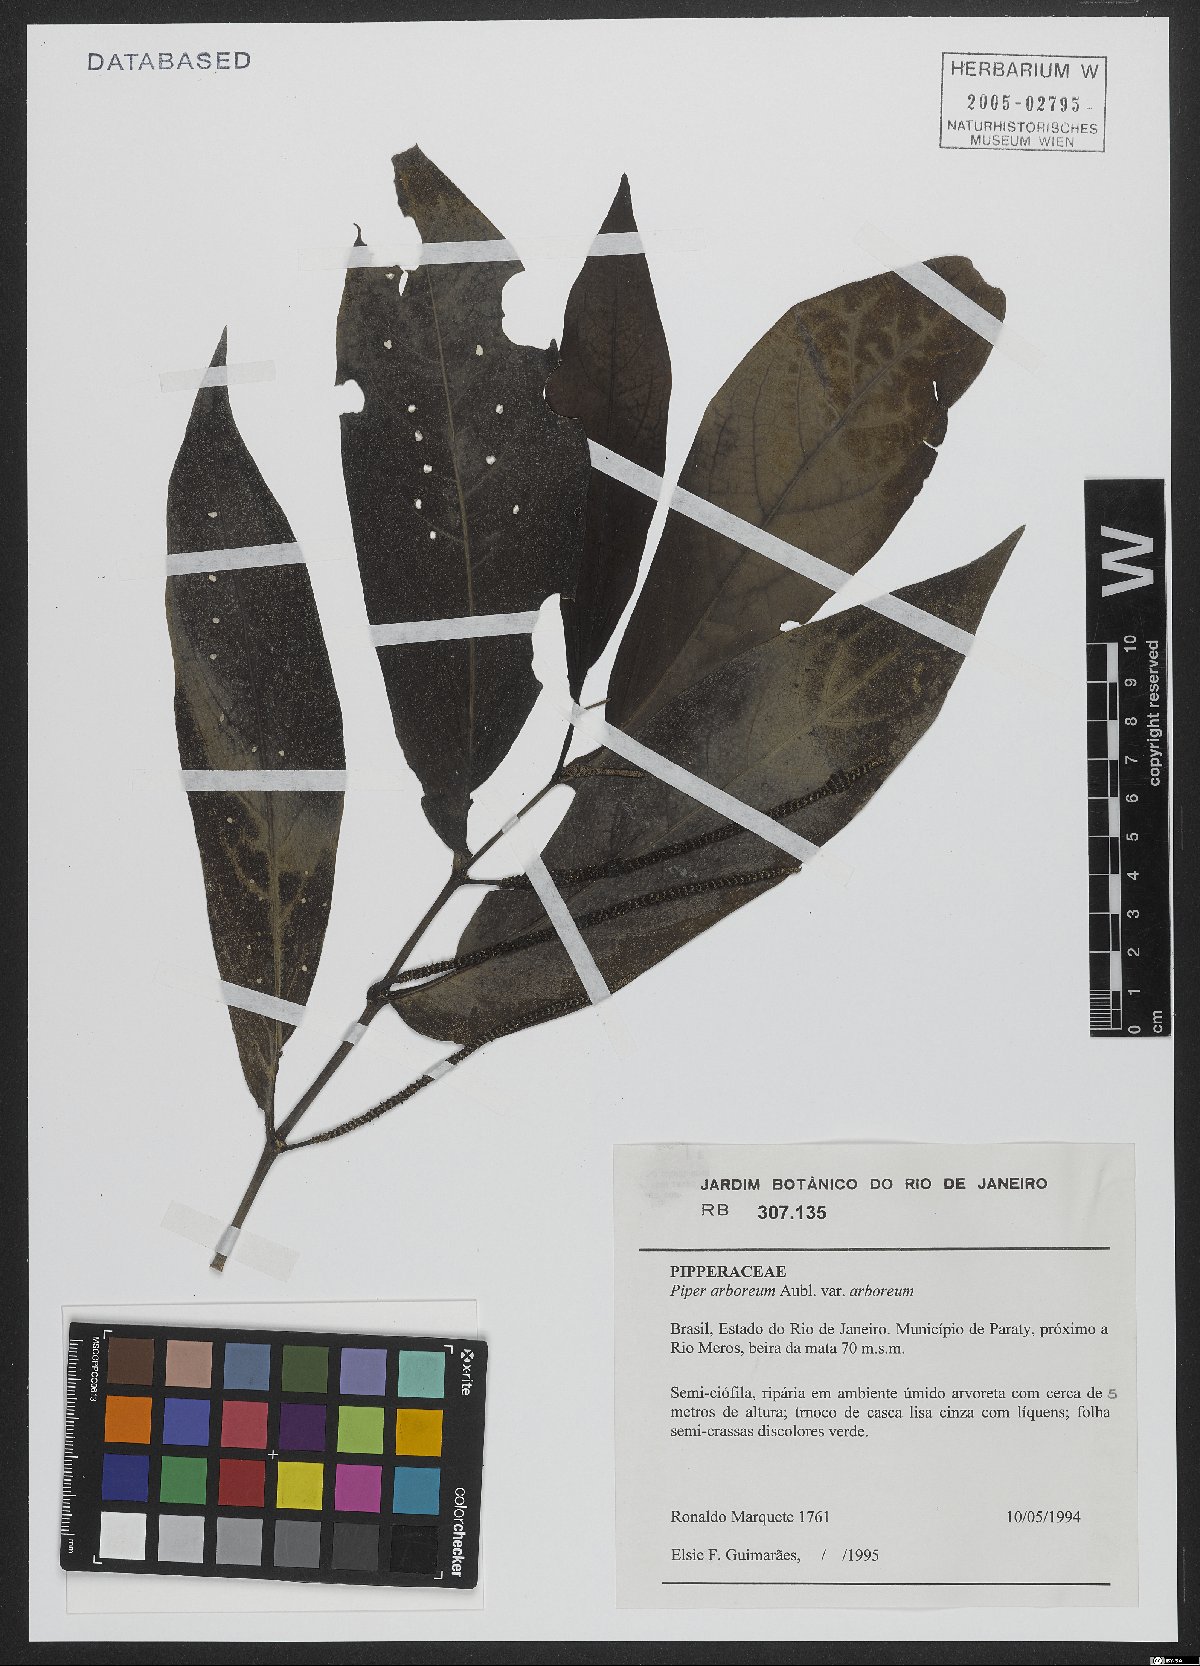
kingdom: Plantae
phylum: Tracheophyta
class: Magnoliopsida
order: Piperales
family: Piperaceae
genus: Piper
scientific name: Piper arboreum
